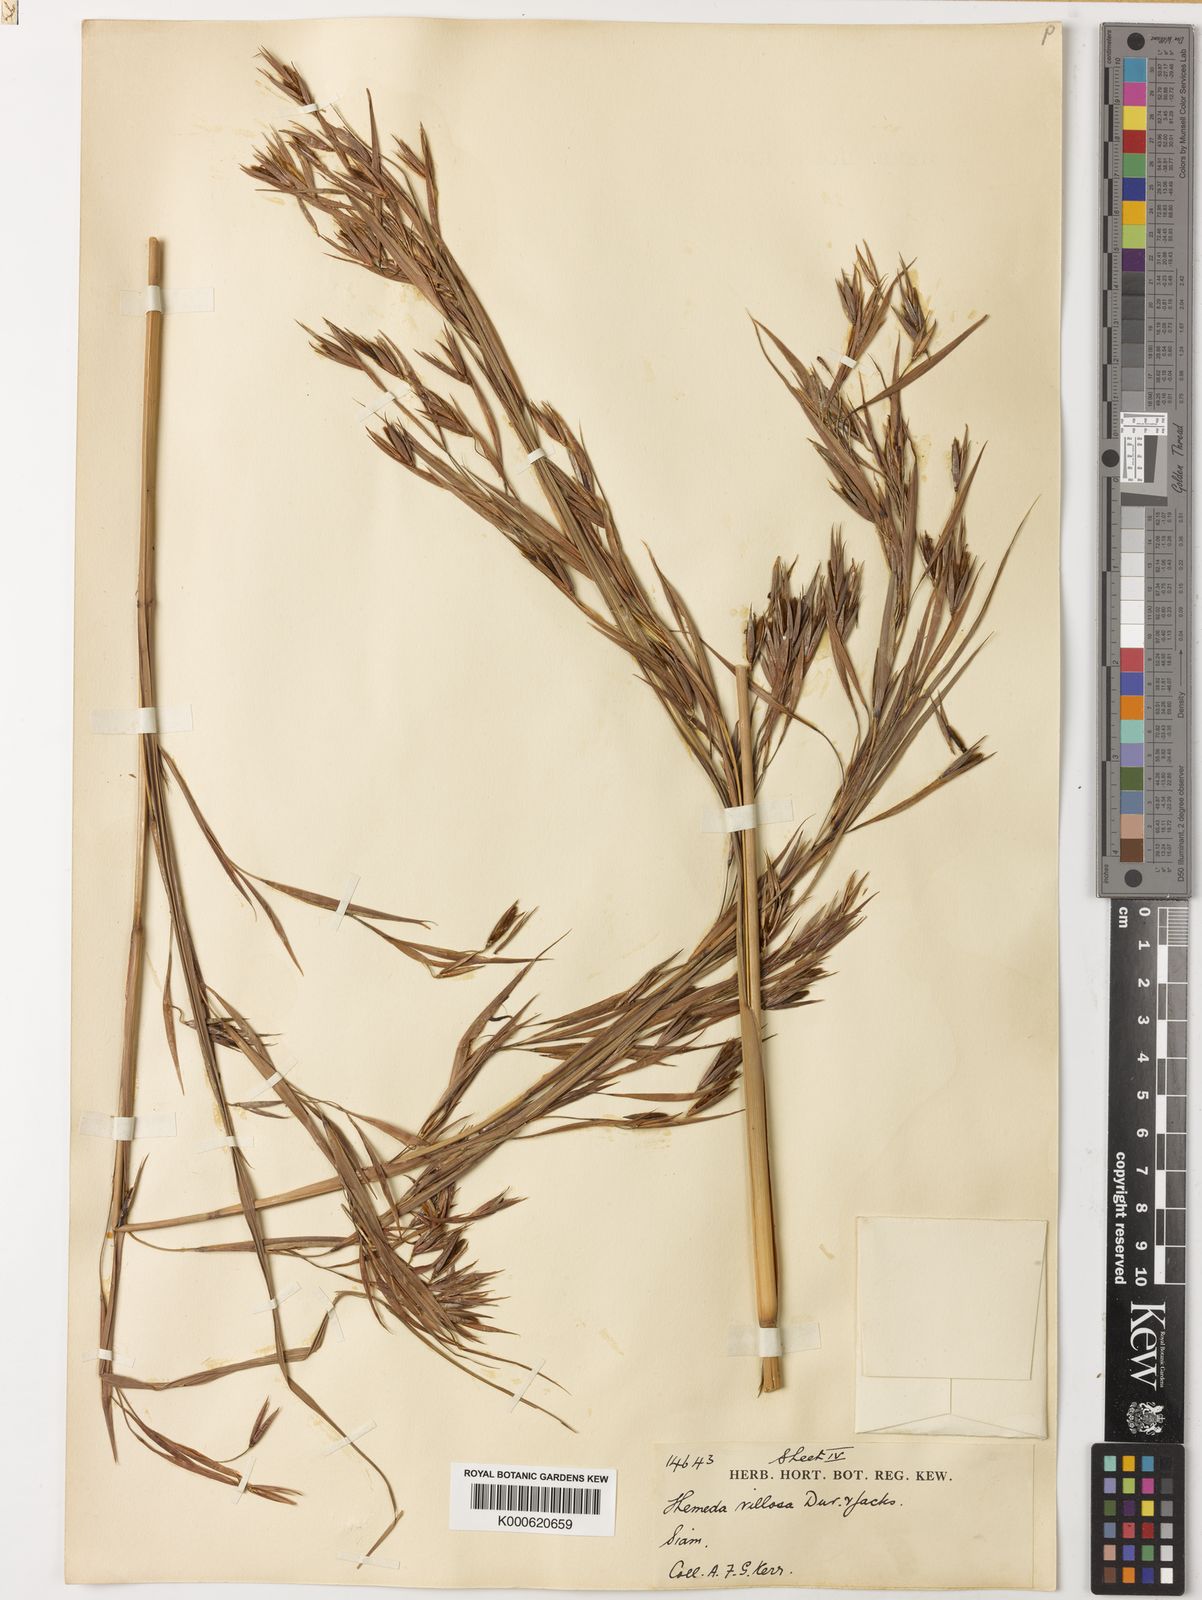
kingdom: Plantae
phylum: Tracheophyta
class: Liliopsida
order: Poales
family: Poaceae
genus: Themeda
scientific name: Themeda villosa
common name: Silky kangaroo grass
